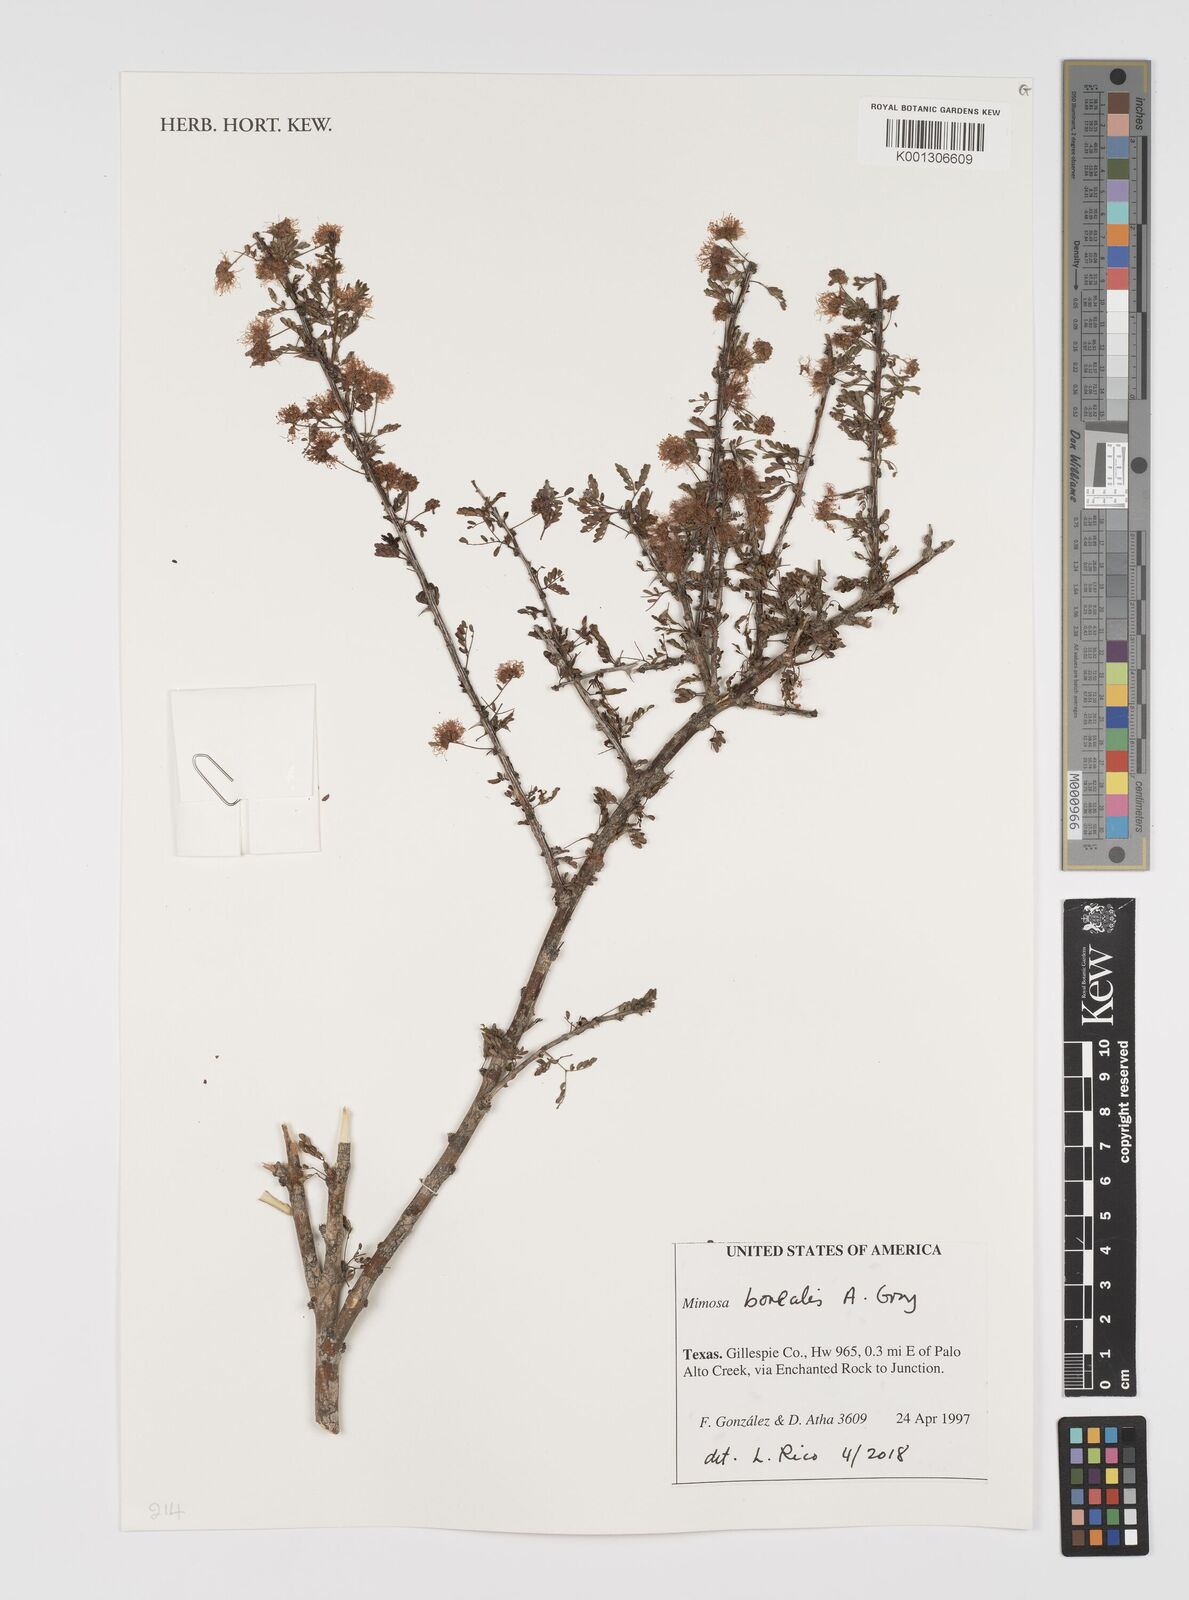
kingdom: Plantae
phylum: Tracheophyta
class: Magnoliopsida
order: Fabales
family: Fabaceae
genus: Mimosa
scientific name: Mimosa borealis
